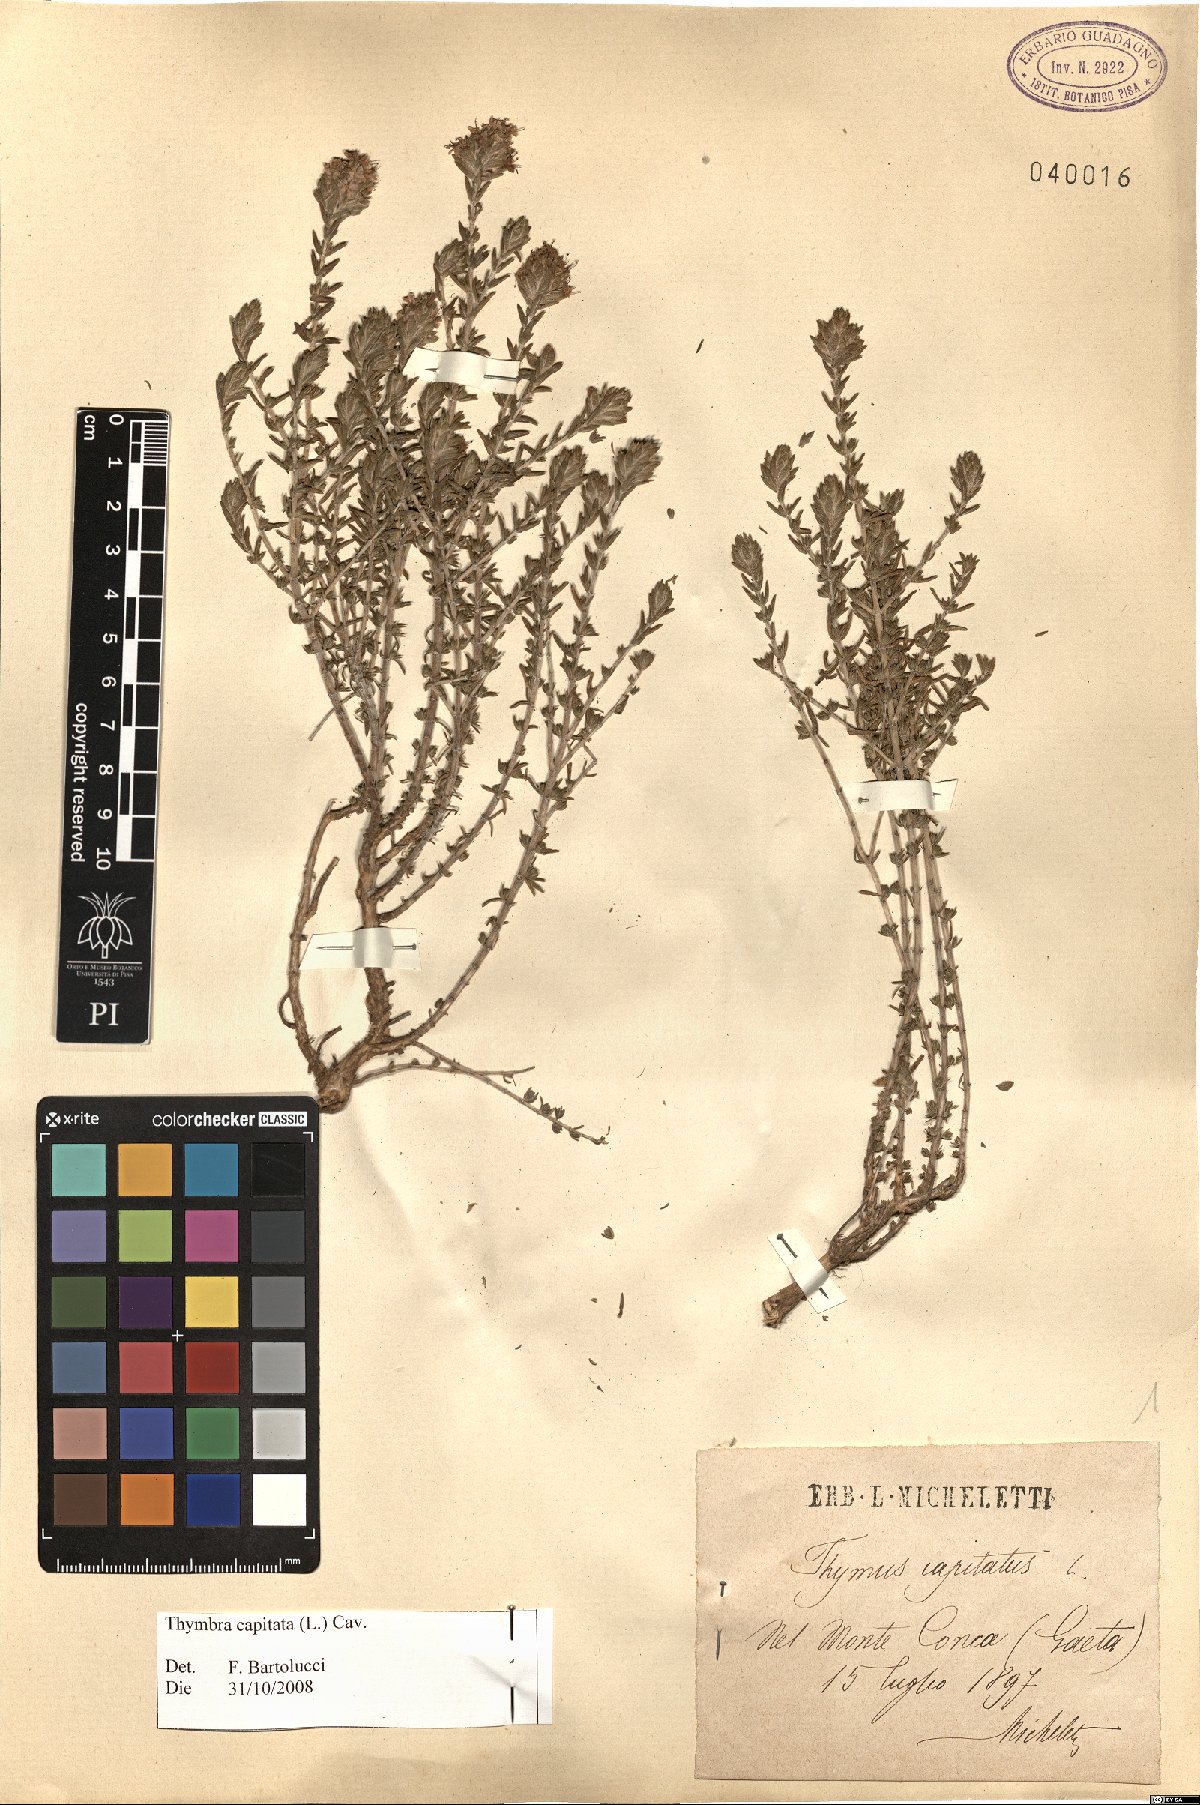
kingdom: Plantae
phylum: Tracheophyta
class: Magnoliopsida
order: Lamiales
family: Lamiaceae
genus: Thymbra
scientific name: Thymbra capitata
